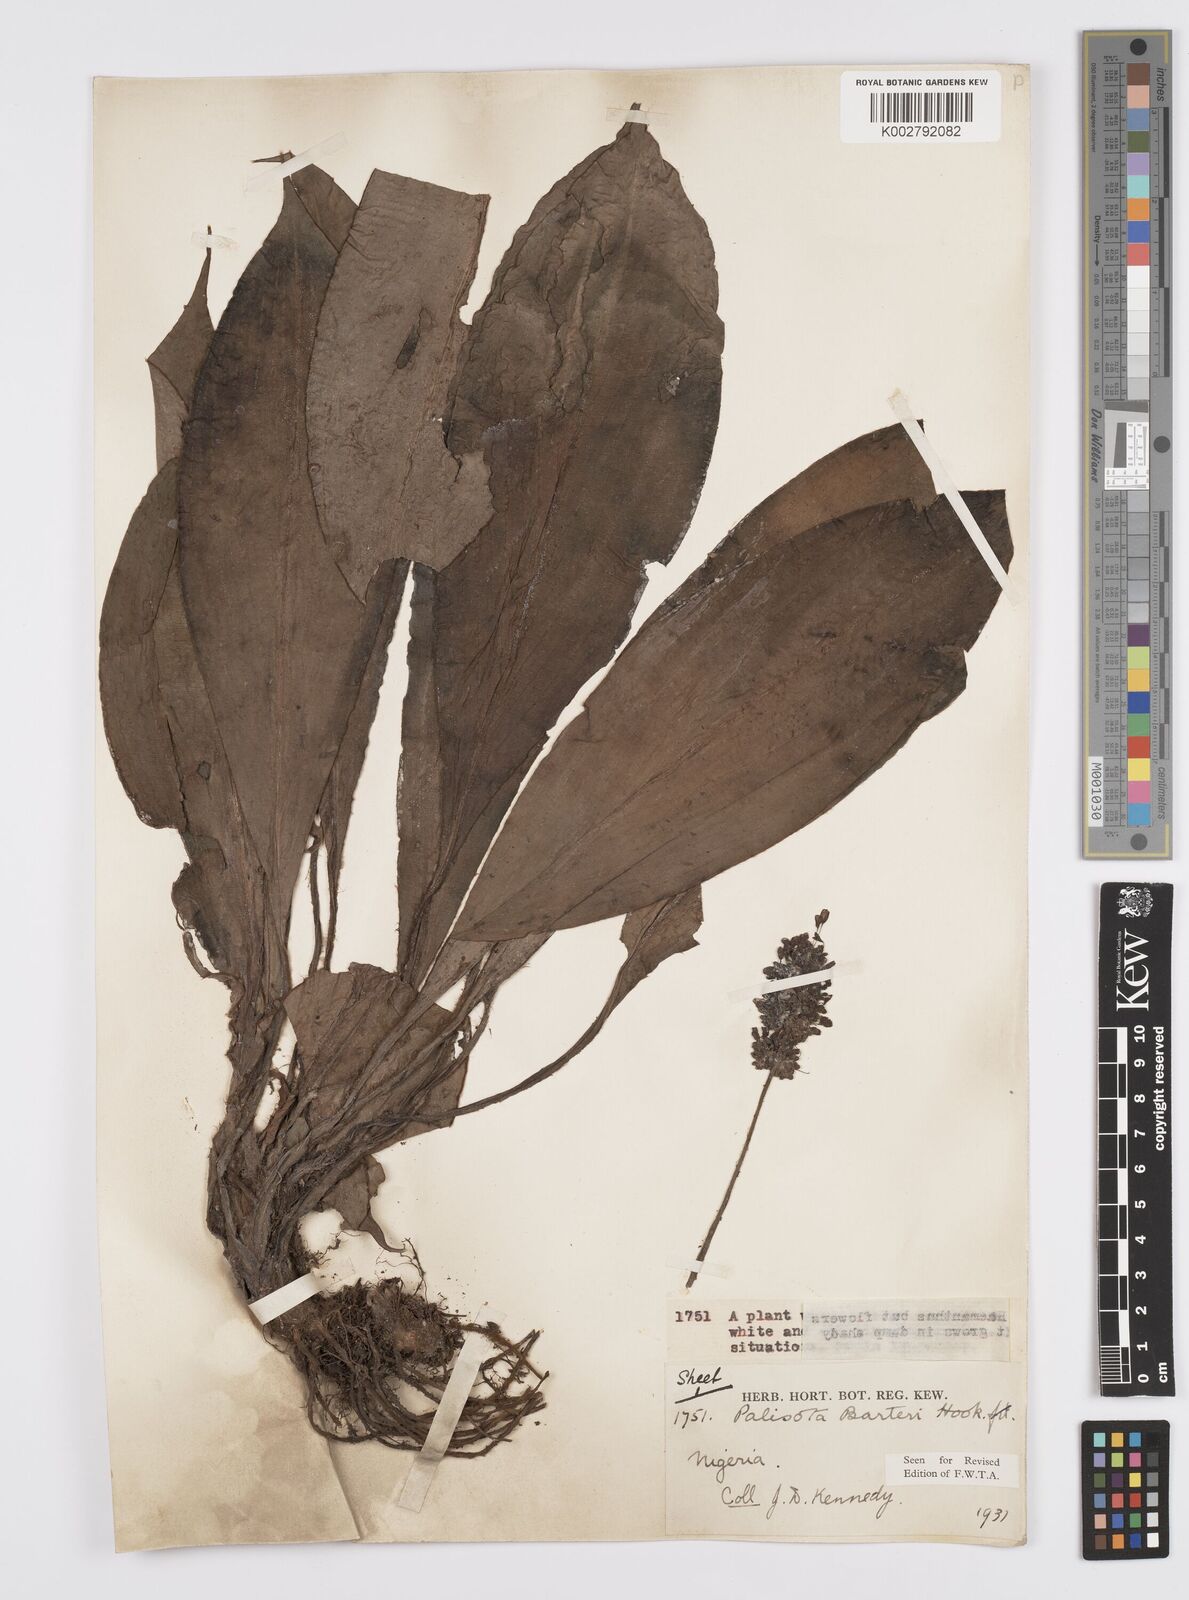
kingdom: Plantae
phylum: Tracheophyta
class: Liliopsida
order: Commelinales
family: Commelinaceae
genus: Palisota
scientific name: Palisota barteri
